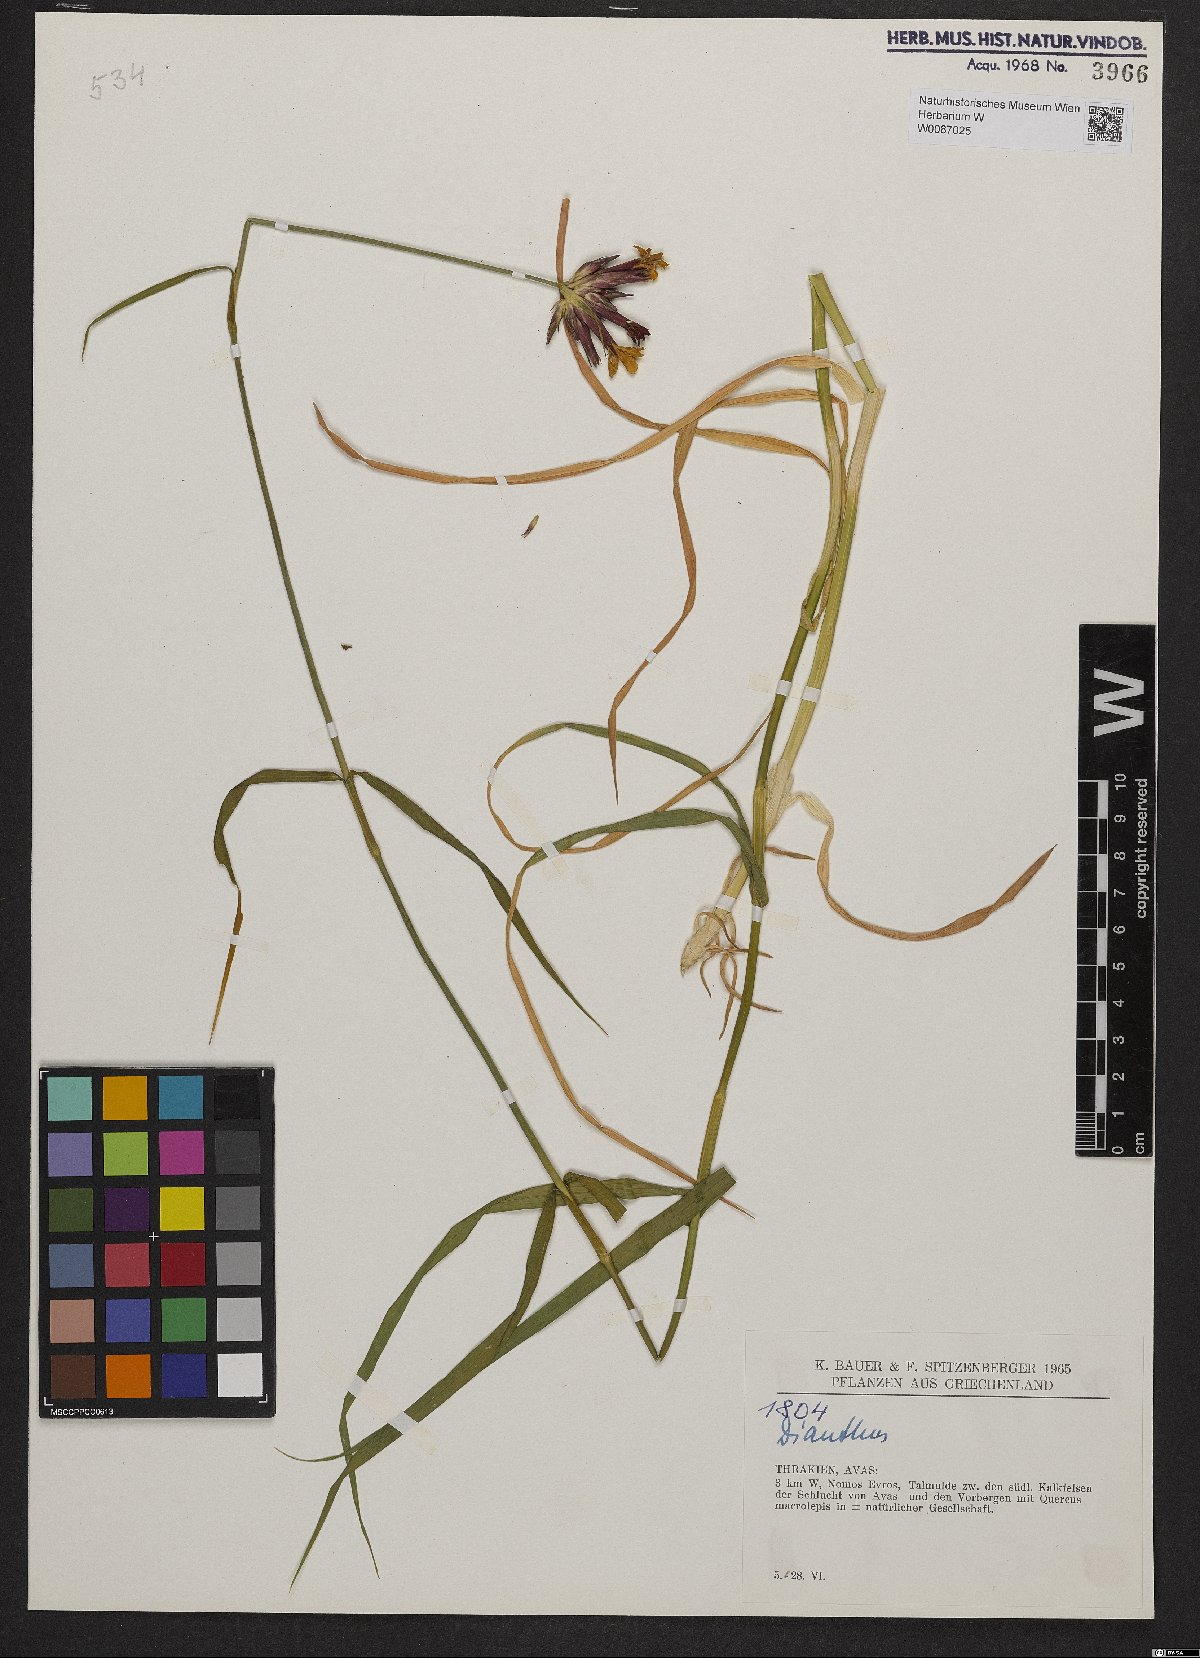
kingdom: Plantae
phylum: Tracheophyta
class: Magnoliopsida
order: Caryophyllales
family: Caryophyllaceae
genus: Dianthus
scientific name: Dianthus cruentus
